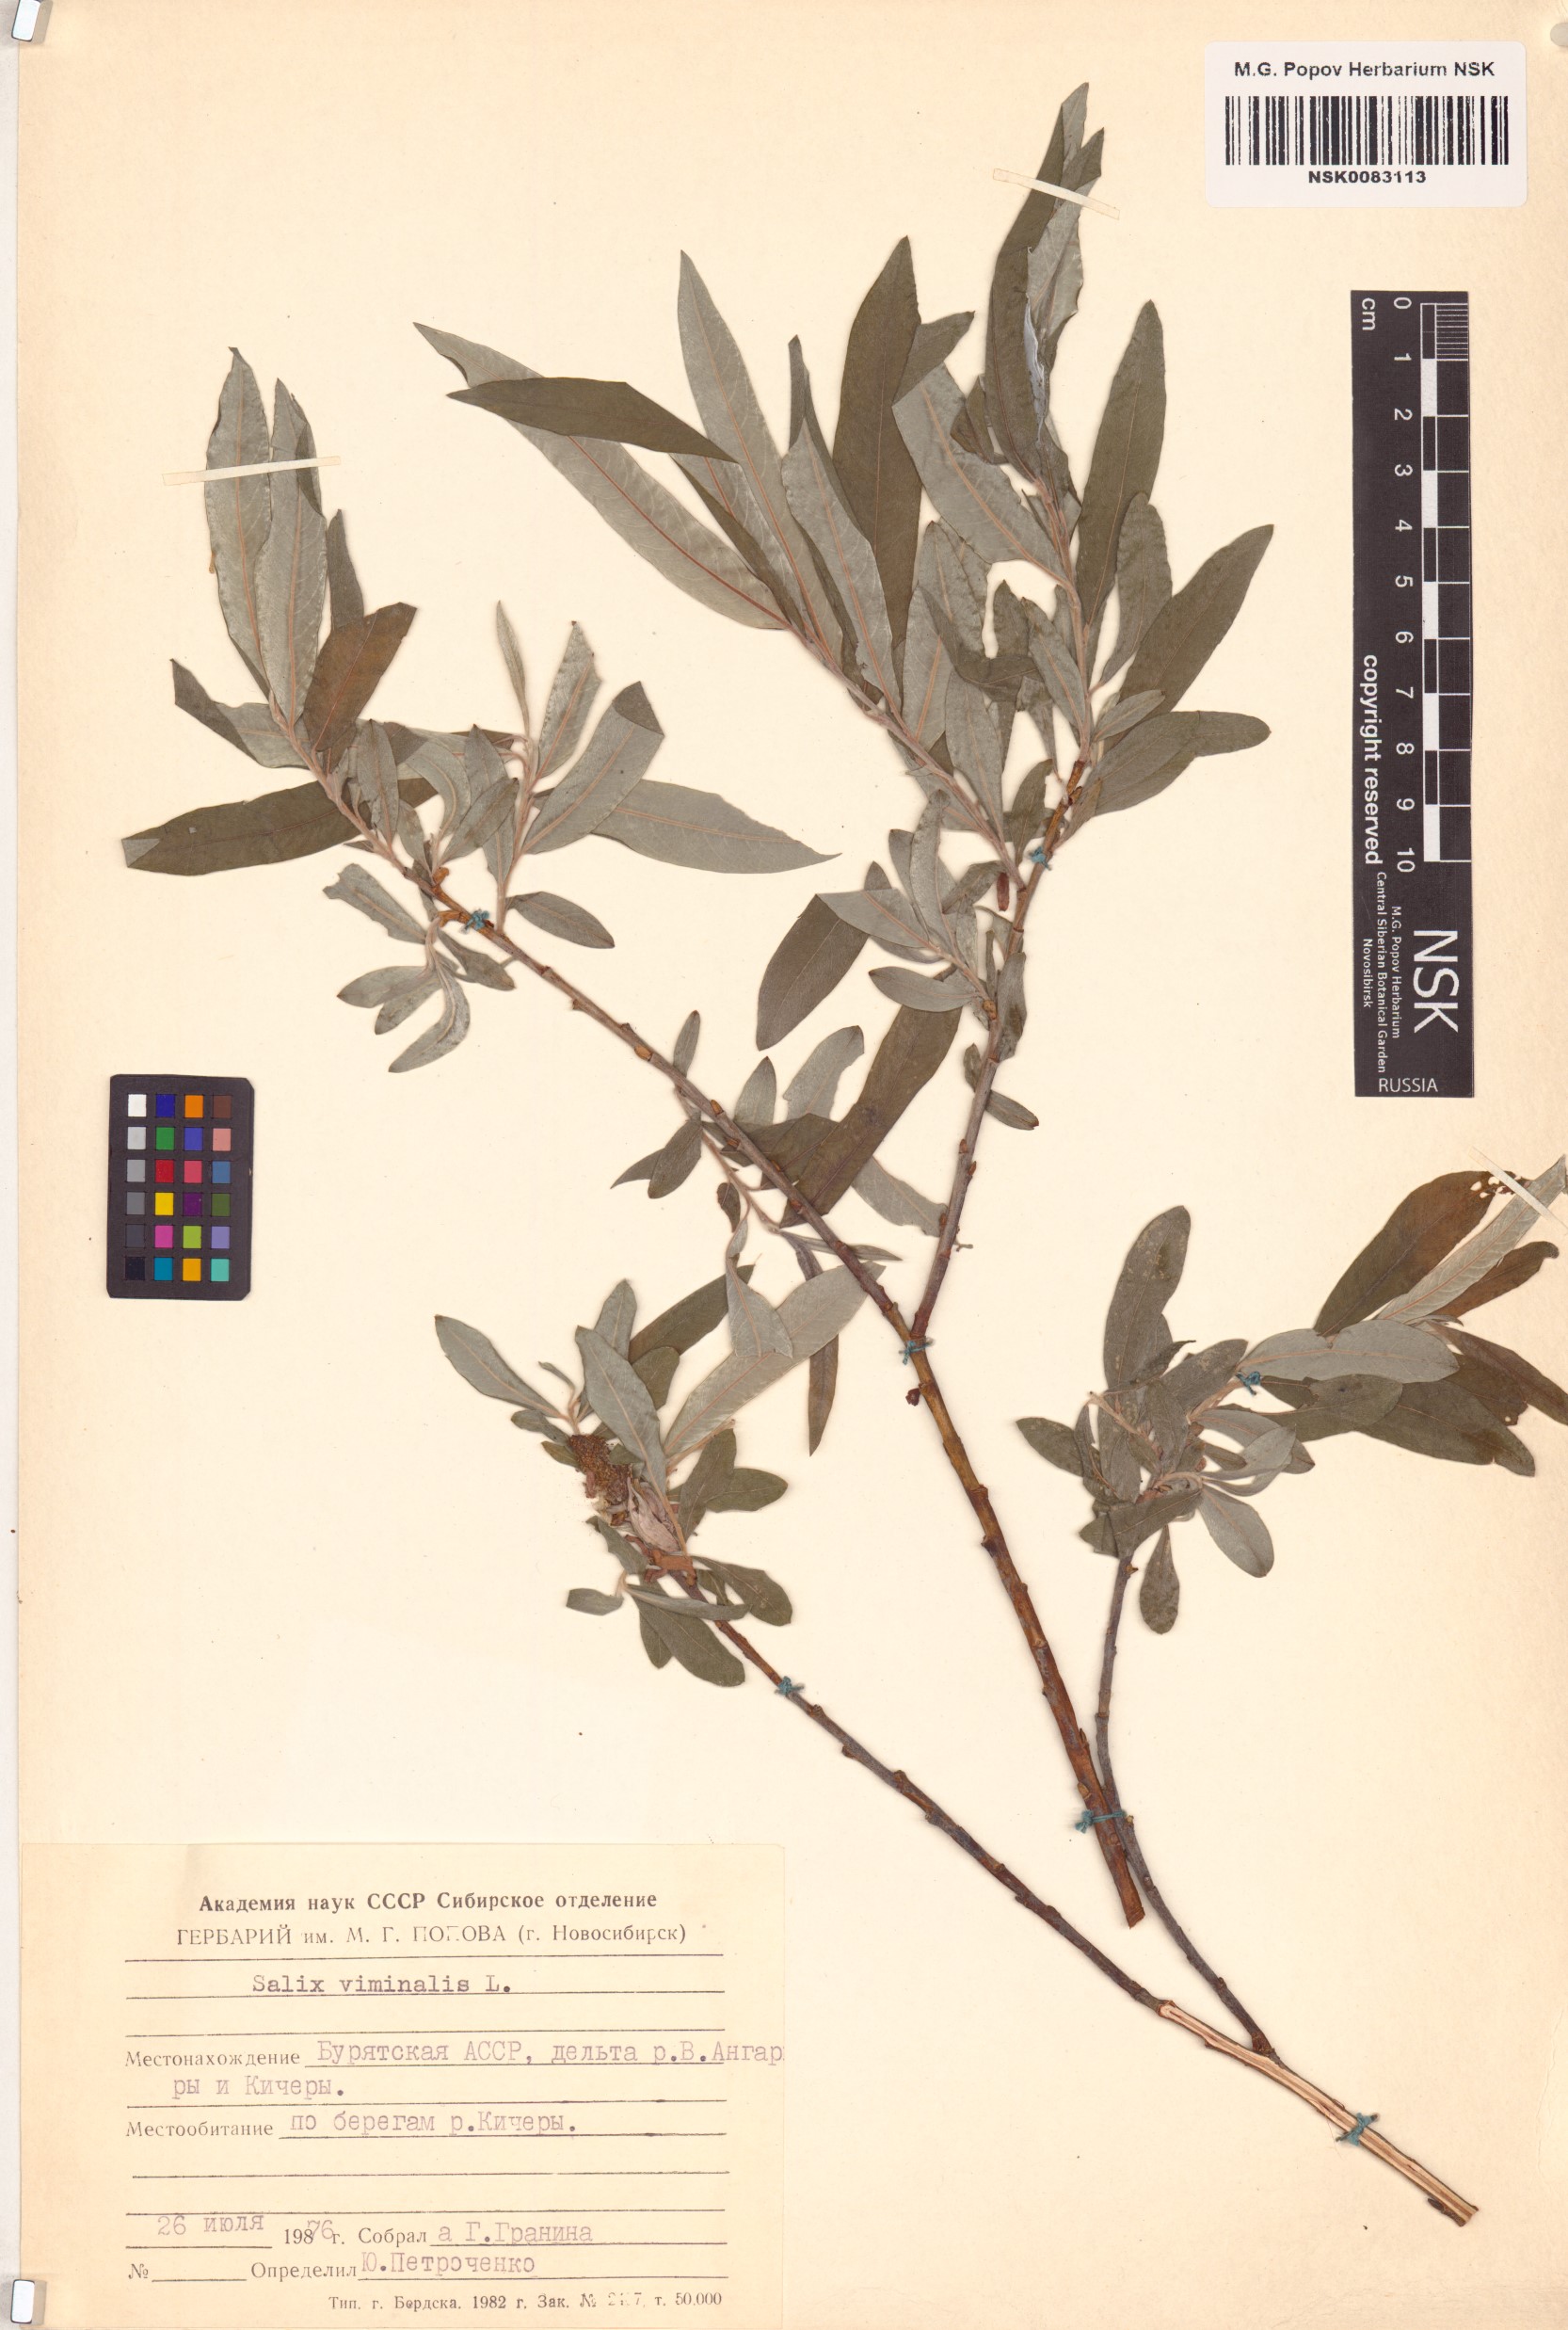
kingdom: Plantae
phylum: Tracheophyta
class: Magnoliopsida
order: Malpighiales
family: Salicaceae
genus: Salix
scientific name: Salix viminalis
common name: Osier
